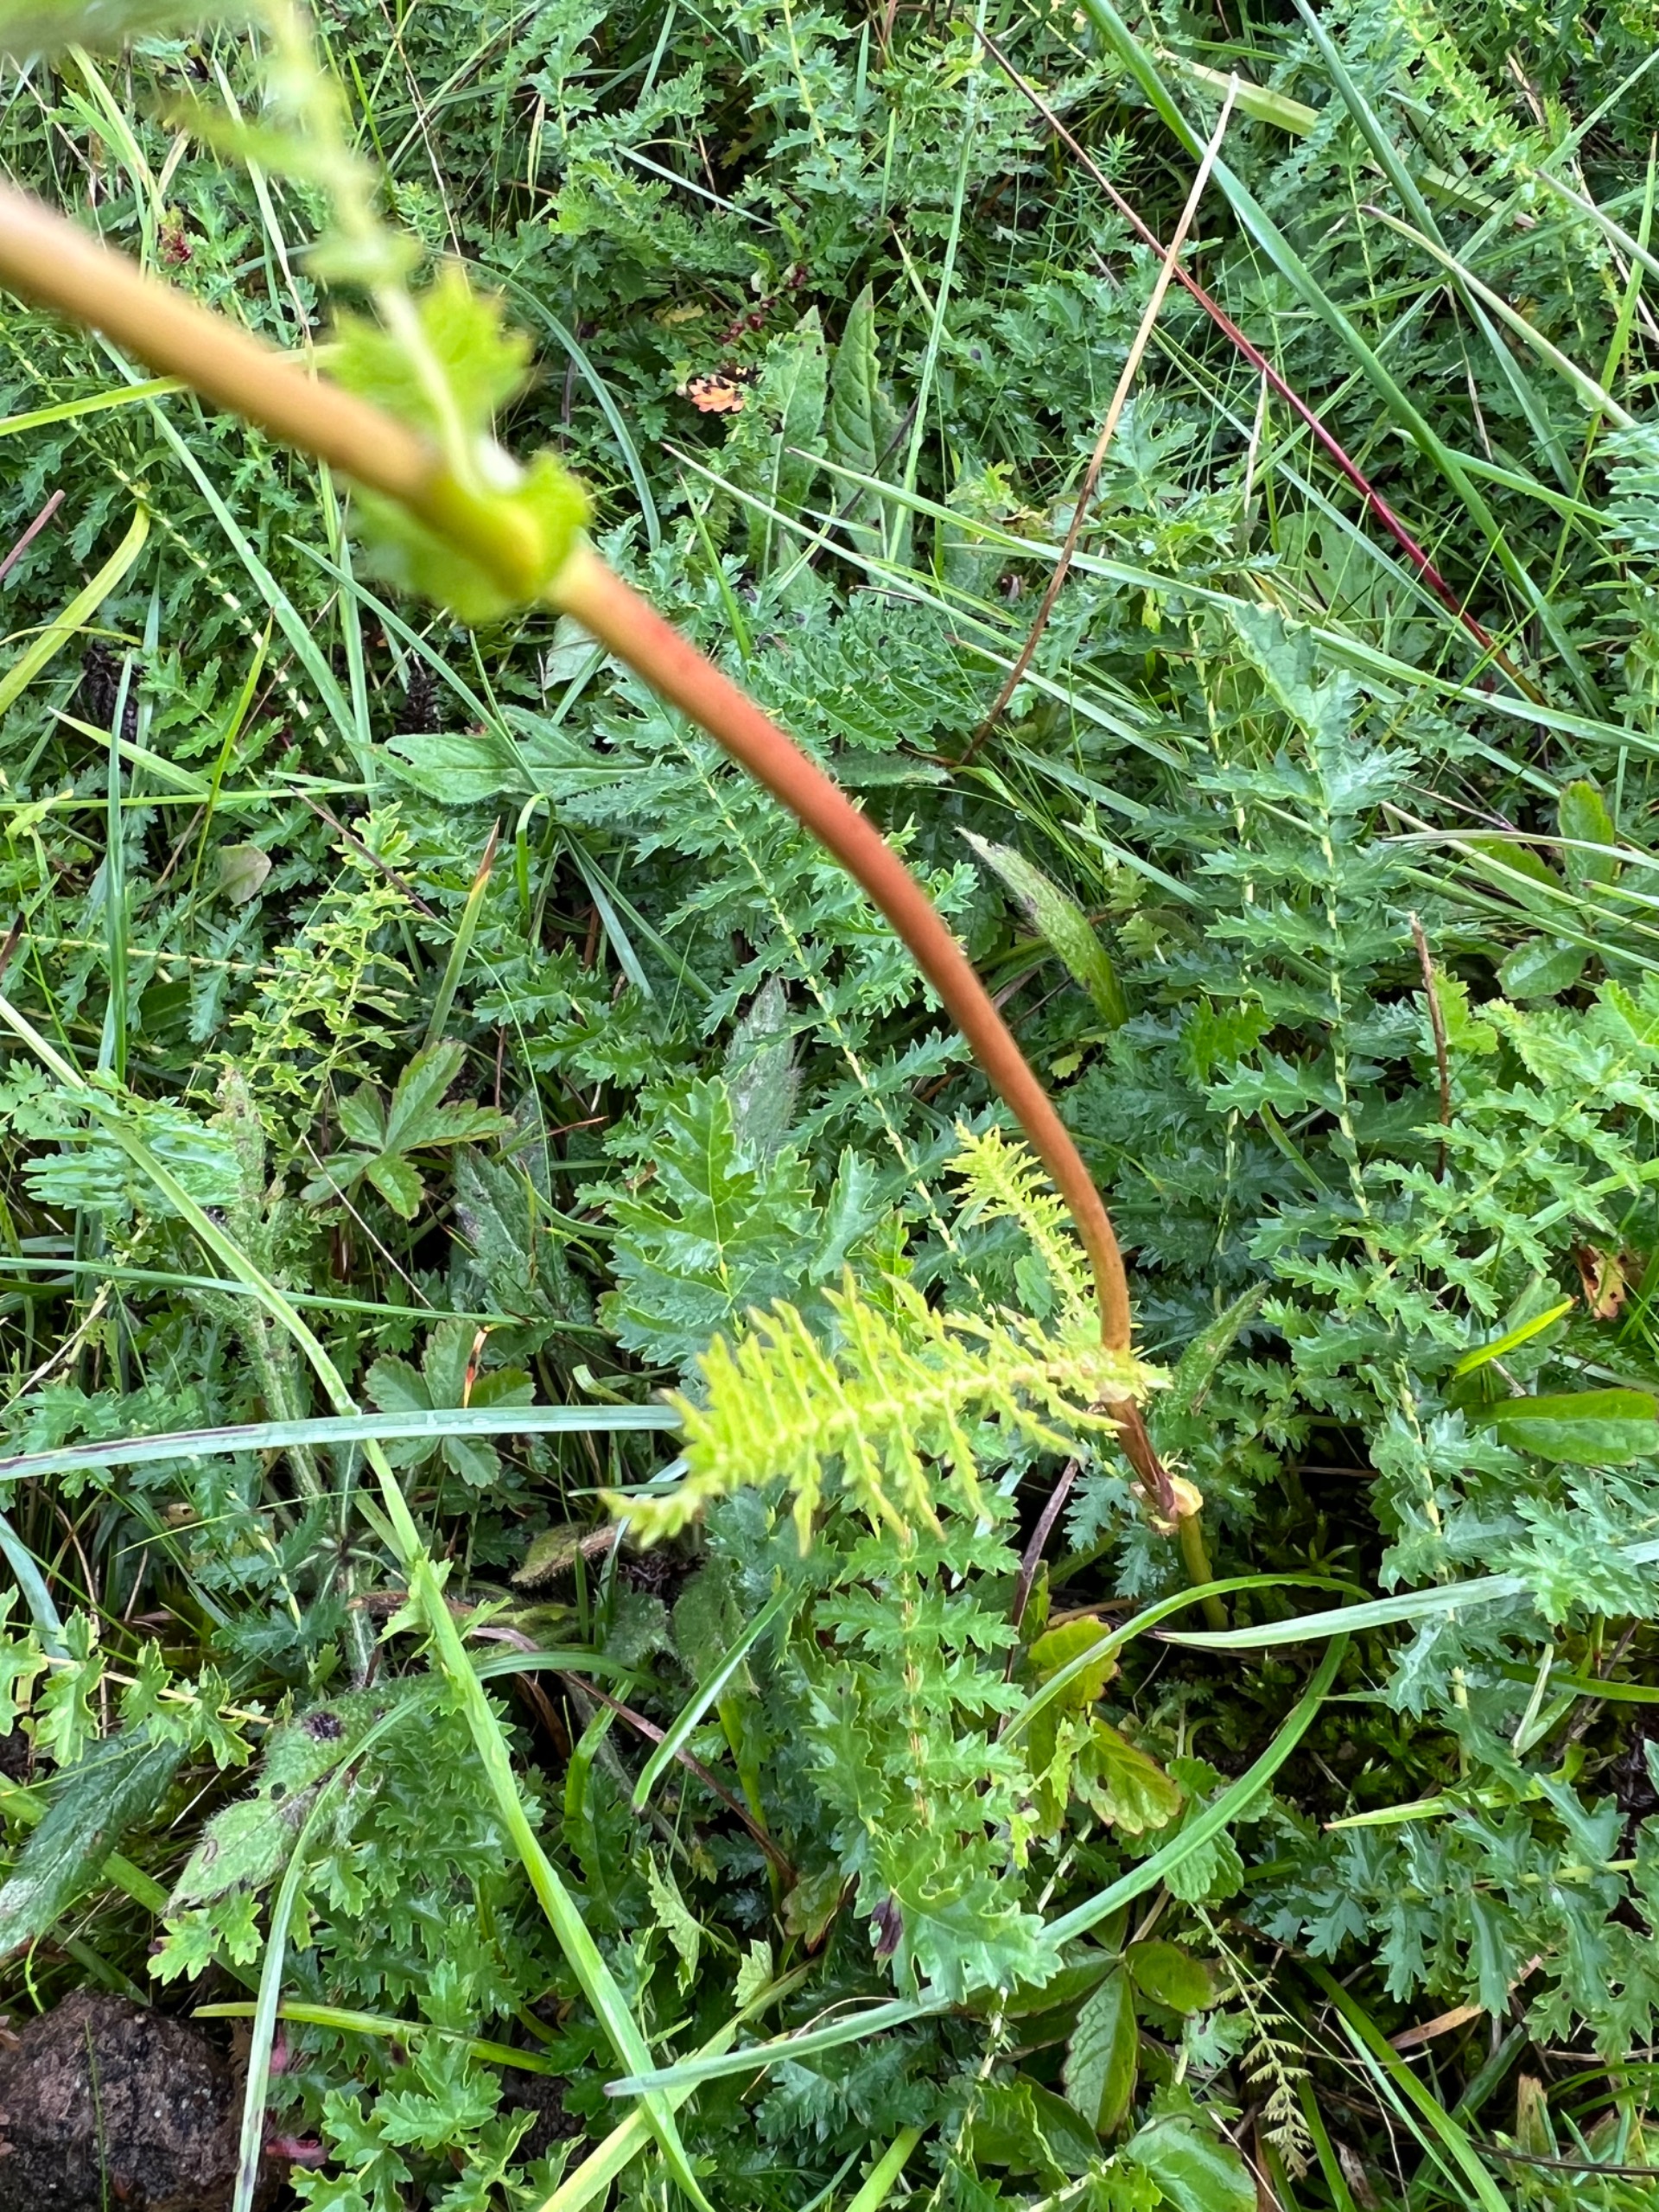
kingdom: Plantae
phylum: Tracheophyta
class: Magnoliopsida
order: Rosales
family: Rosaceae
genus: Filipendula
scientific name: Filipendula vulgaris
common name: Knoldet mjødurt
